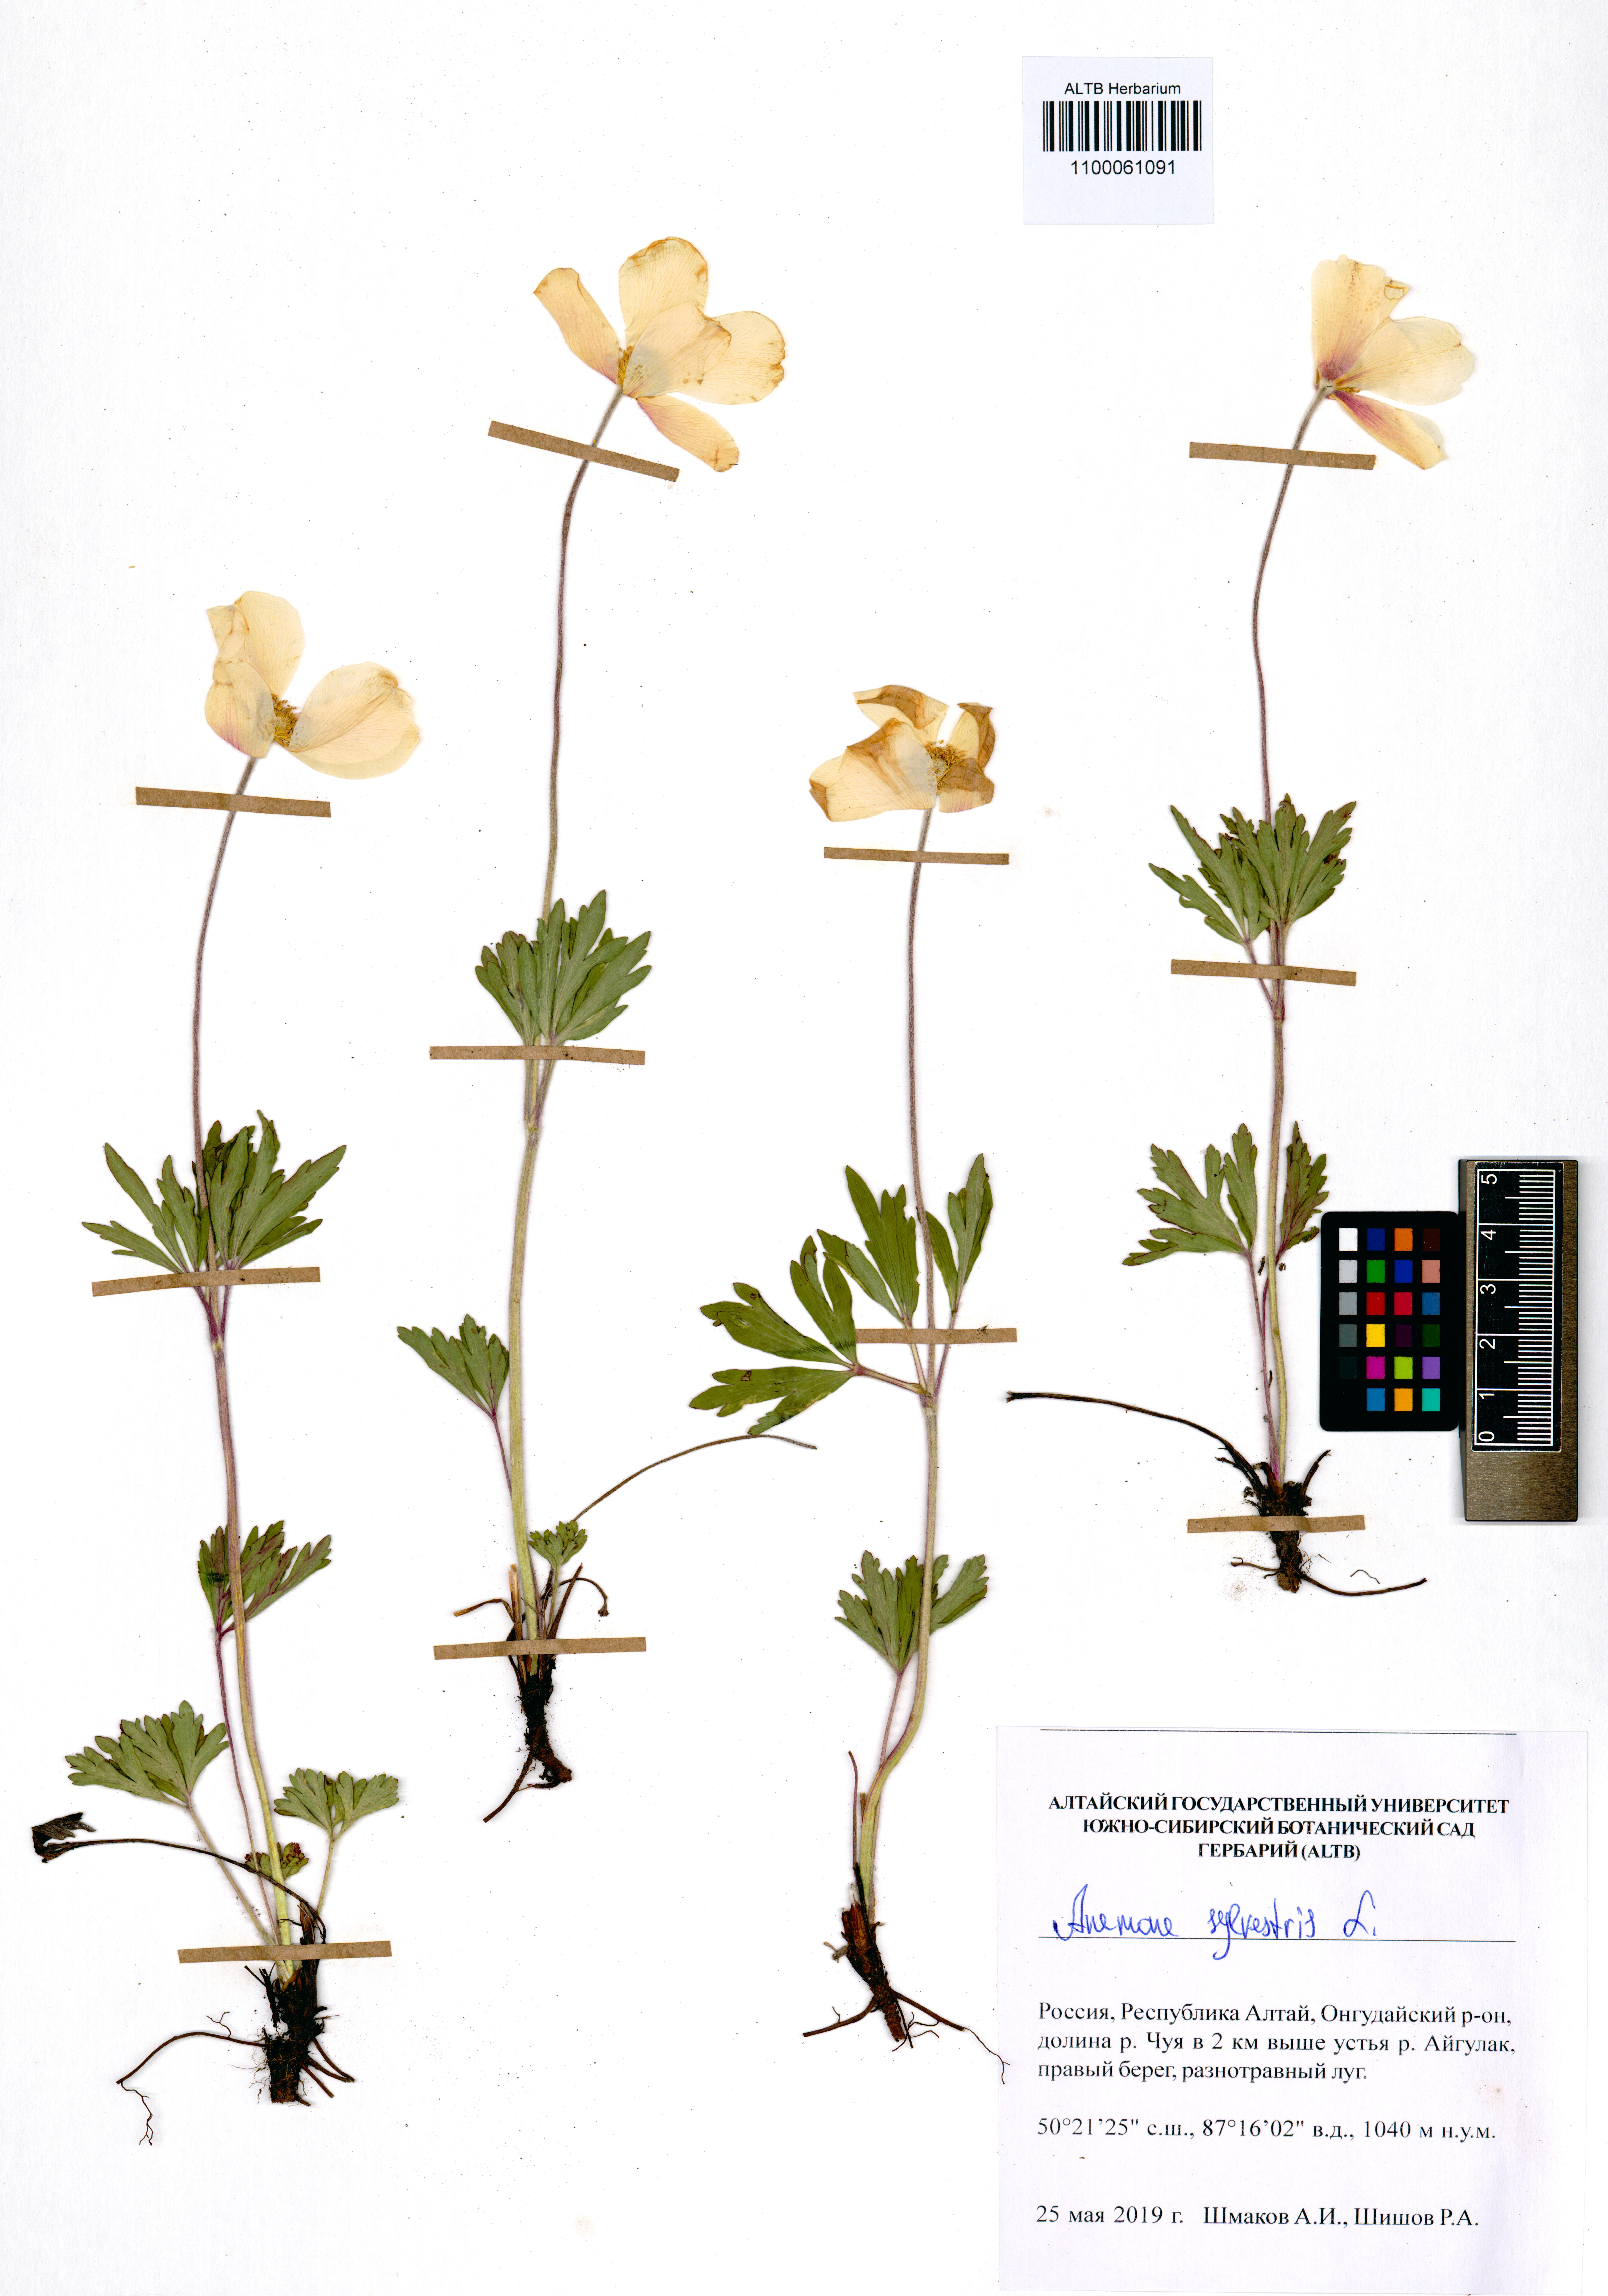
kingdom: Plantae
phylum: Tracheophyta
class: Magnoliopsida
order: Ranunculales
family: Ranunculaceae
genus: Anemone
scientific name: Anemone sylvestris
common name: Snowdrop anemone
